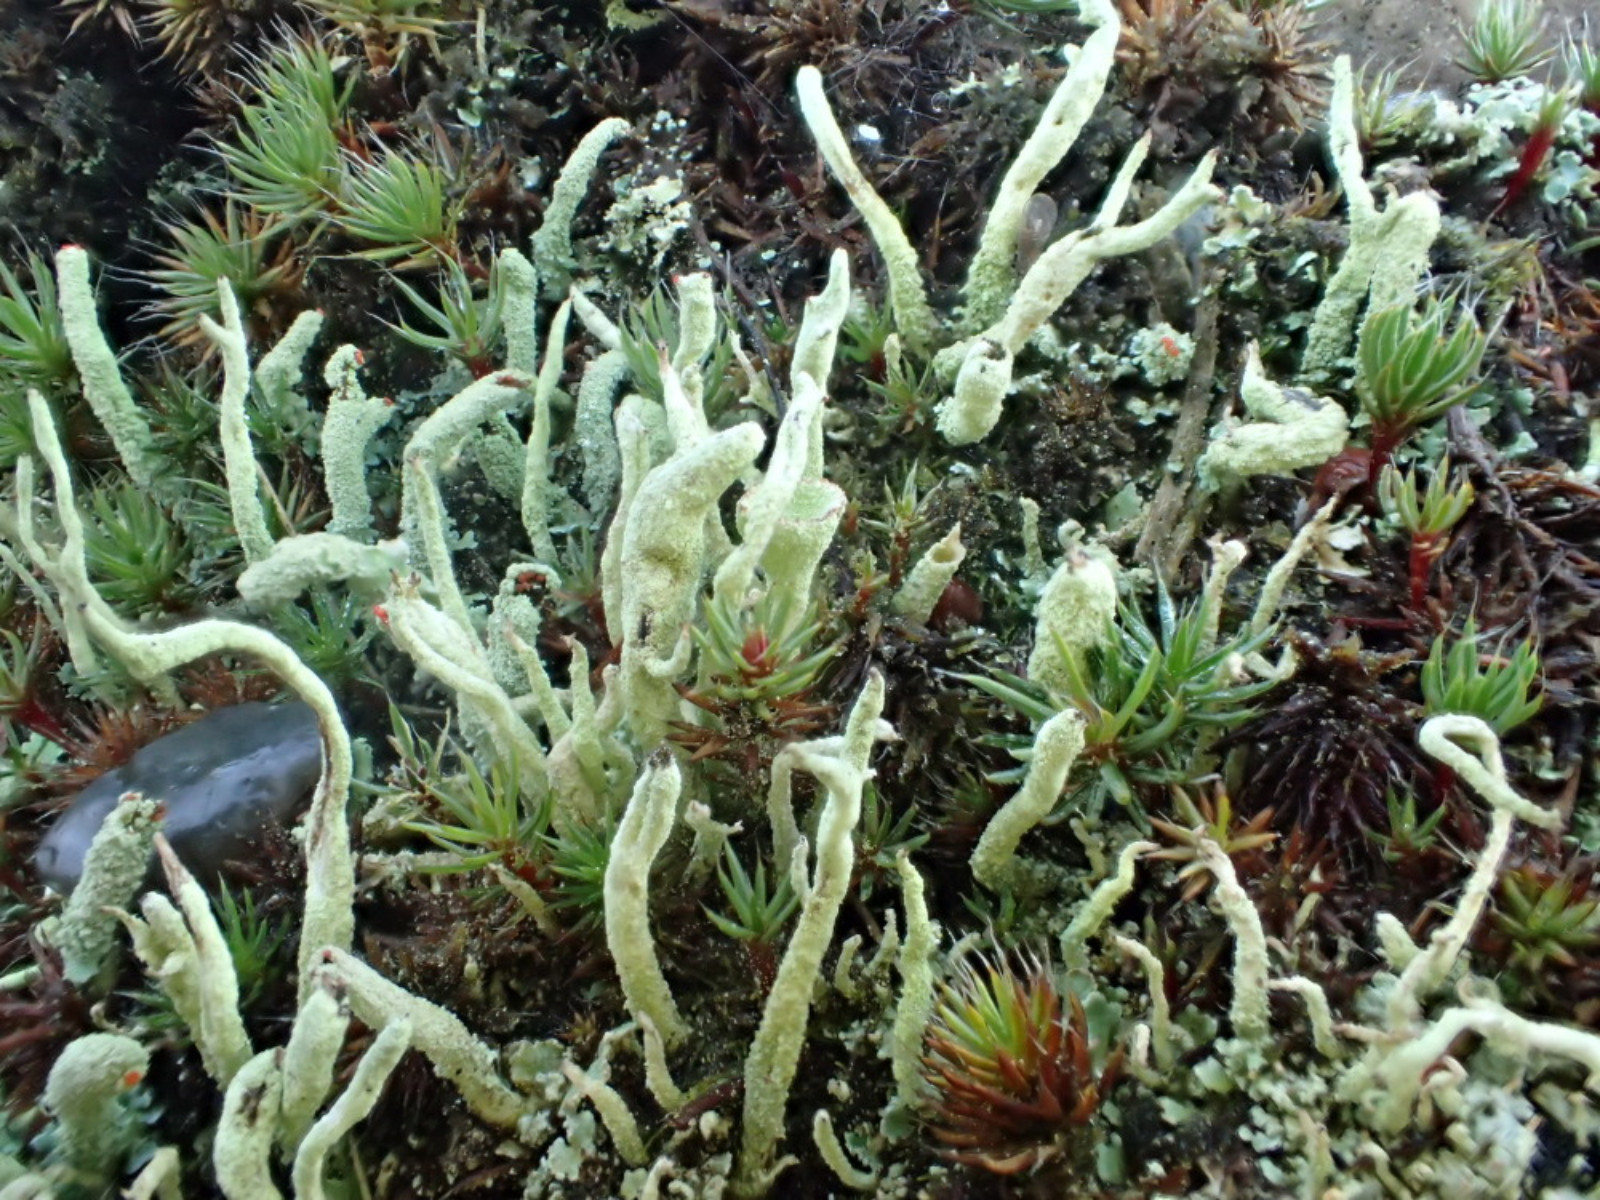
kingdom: Fungi
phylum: Ascomycota
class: Lecanoromycetes
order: Lecanorales
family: Cladoniaceae
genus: Cladonia
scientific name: Cladonia macilenta
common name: indsvunden bægerlav
